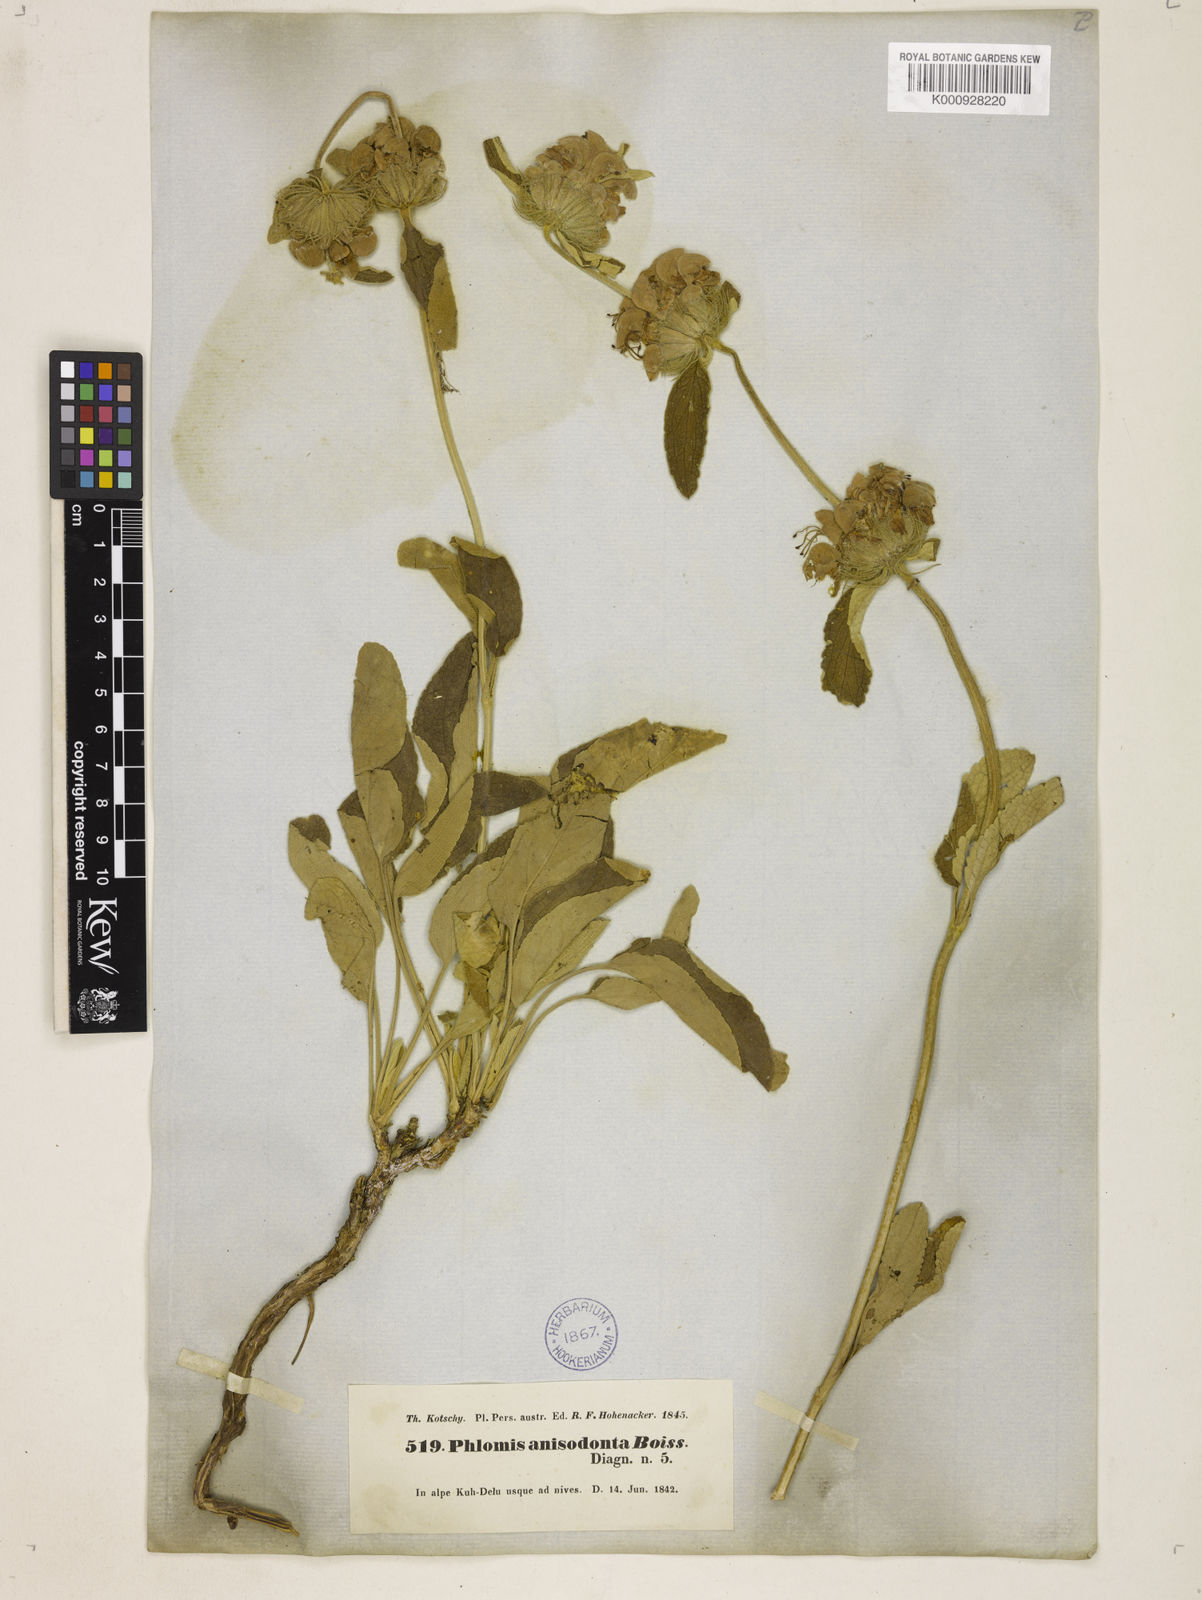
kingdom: Plantae
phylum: Tracheophyta
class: Magnoliopsida
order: Lamiales
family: Lamiaceae
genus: Phlomis
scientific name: Phlomis anisodonta
